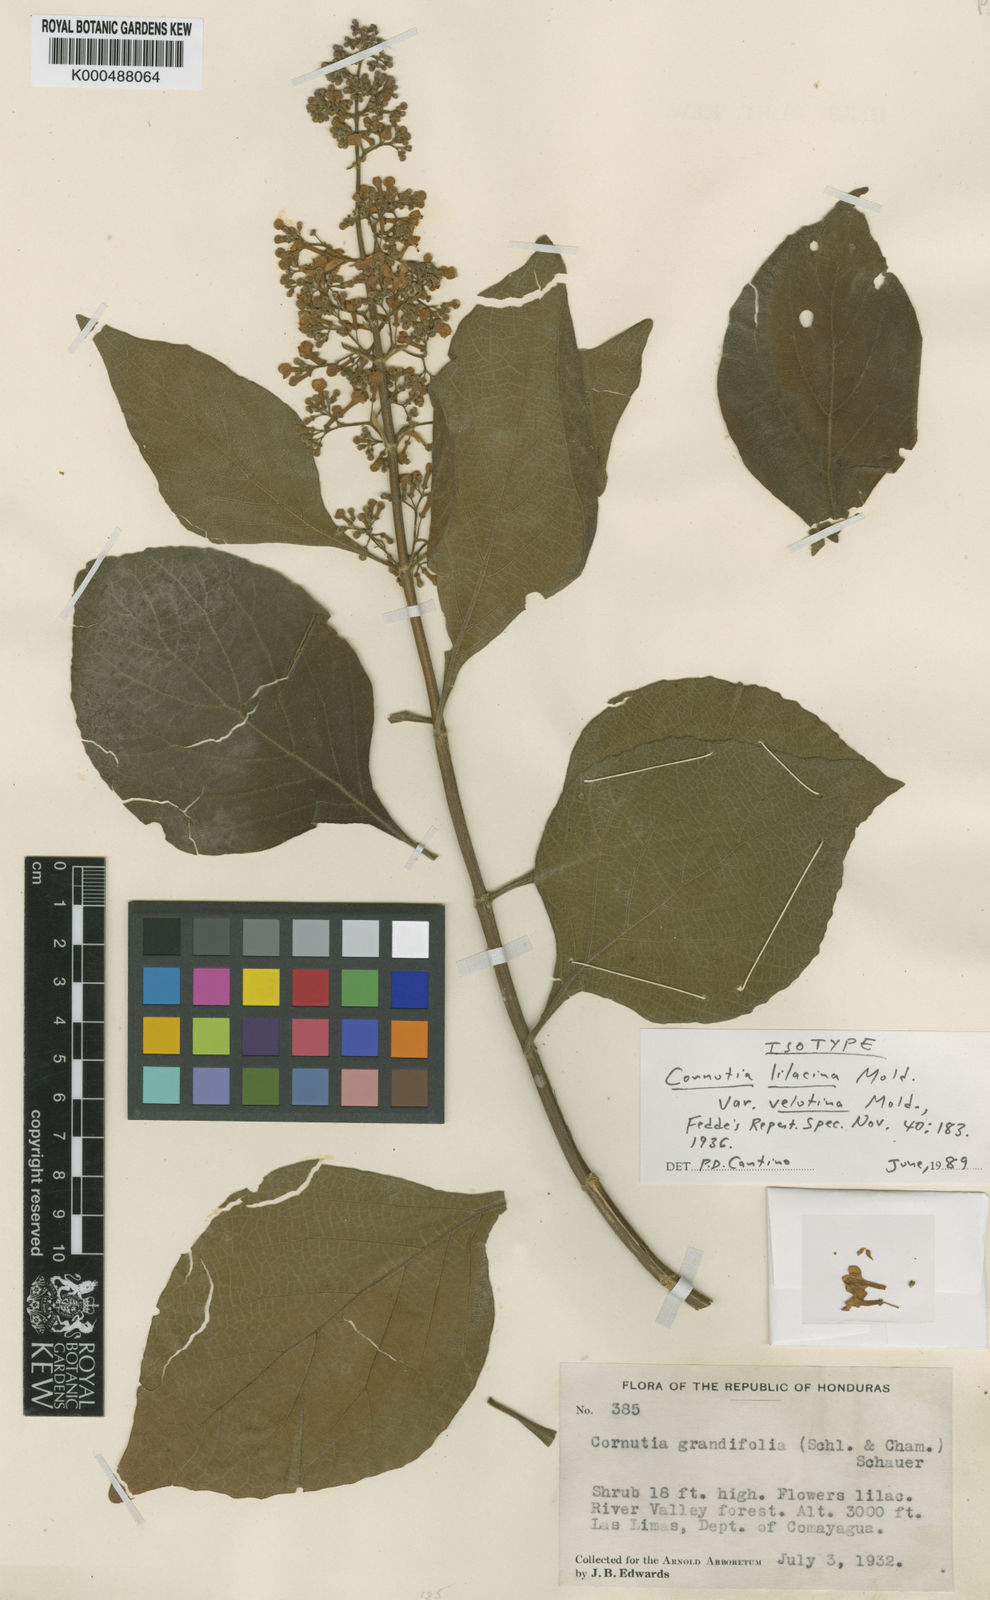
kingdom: Plantae
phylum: Tracheophyta
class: Magnoliopsida
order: Lamiales
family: Lamiaceae
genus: Cornutia
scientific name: Cornutia pyramidata
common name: Azulejo
